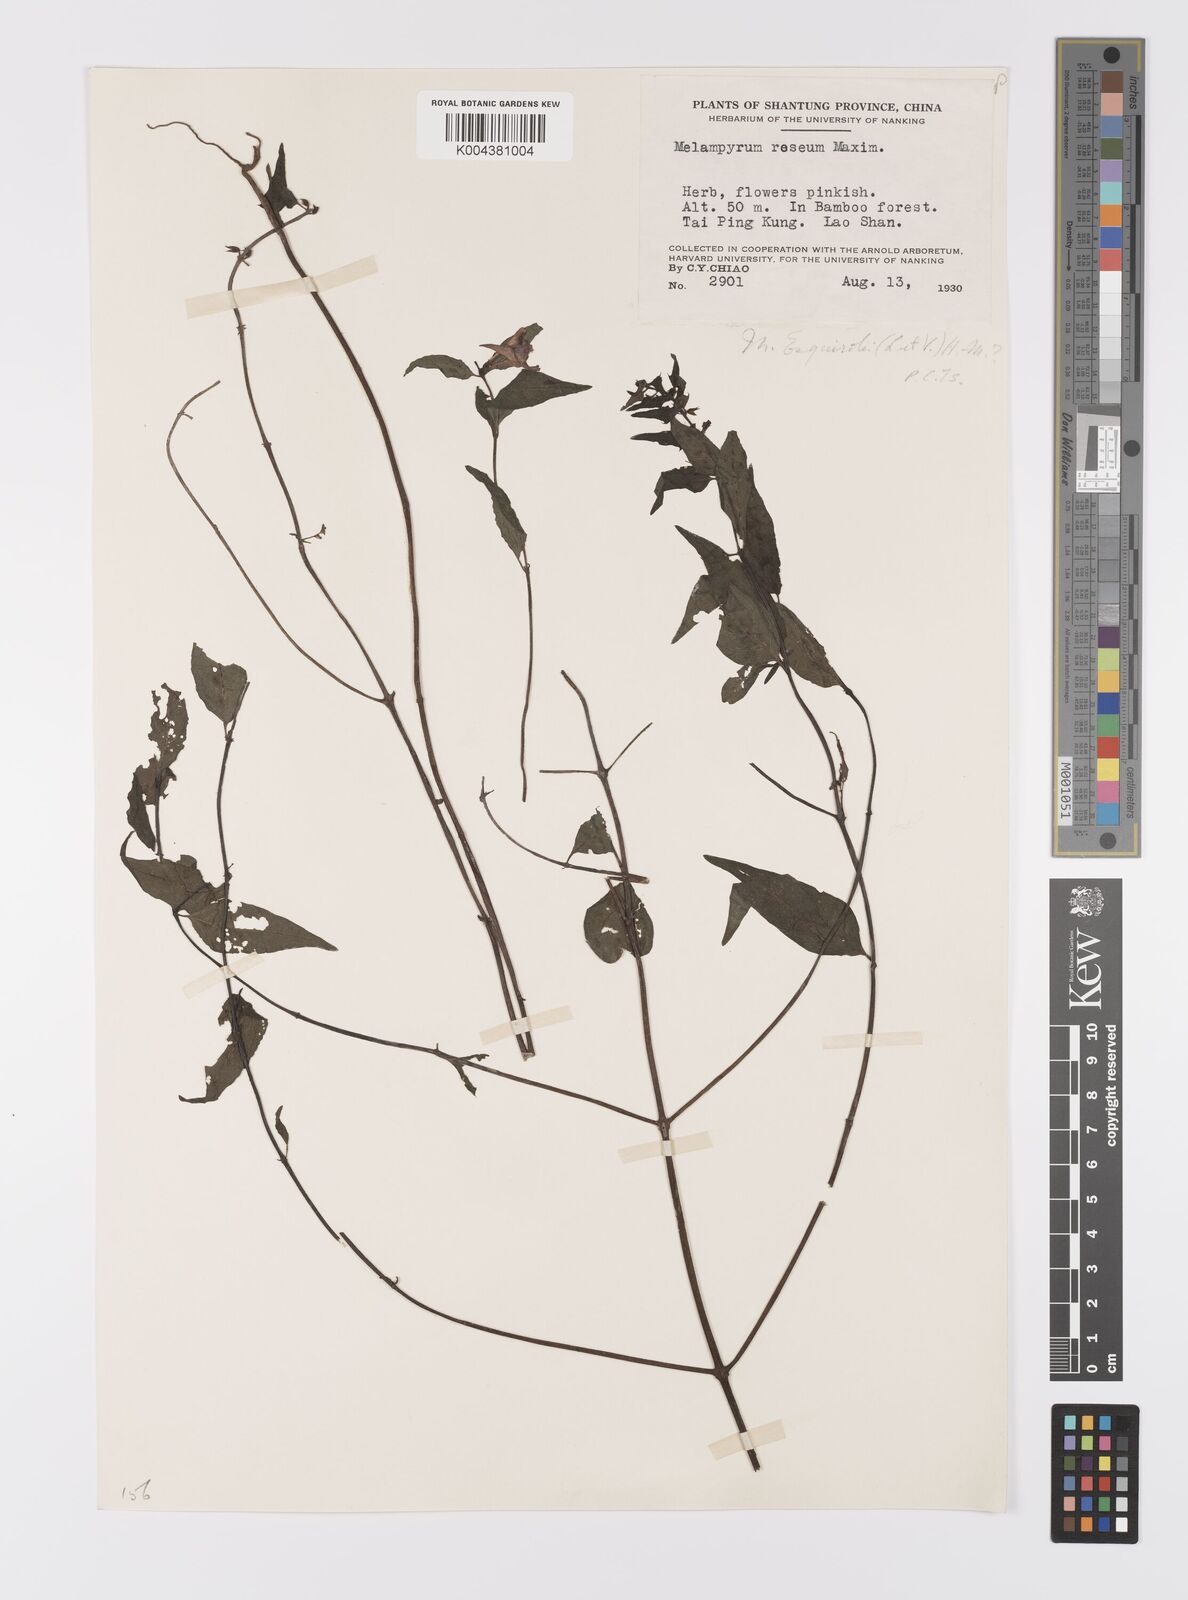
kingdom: Plantae
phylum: Tracheophyta
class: Magnoliopsida
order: Lamiales
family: Orobanchaceae
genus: Melampyrum
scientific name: Melampyrum roseum
